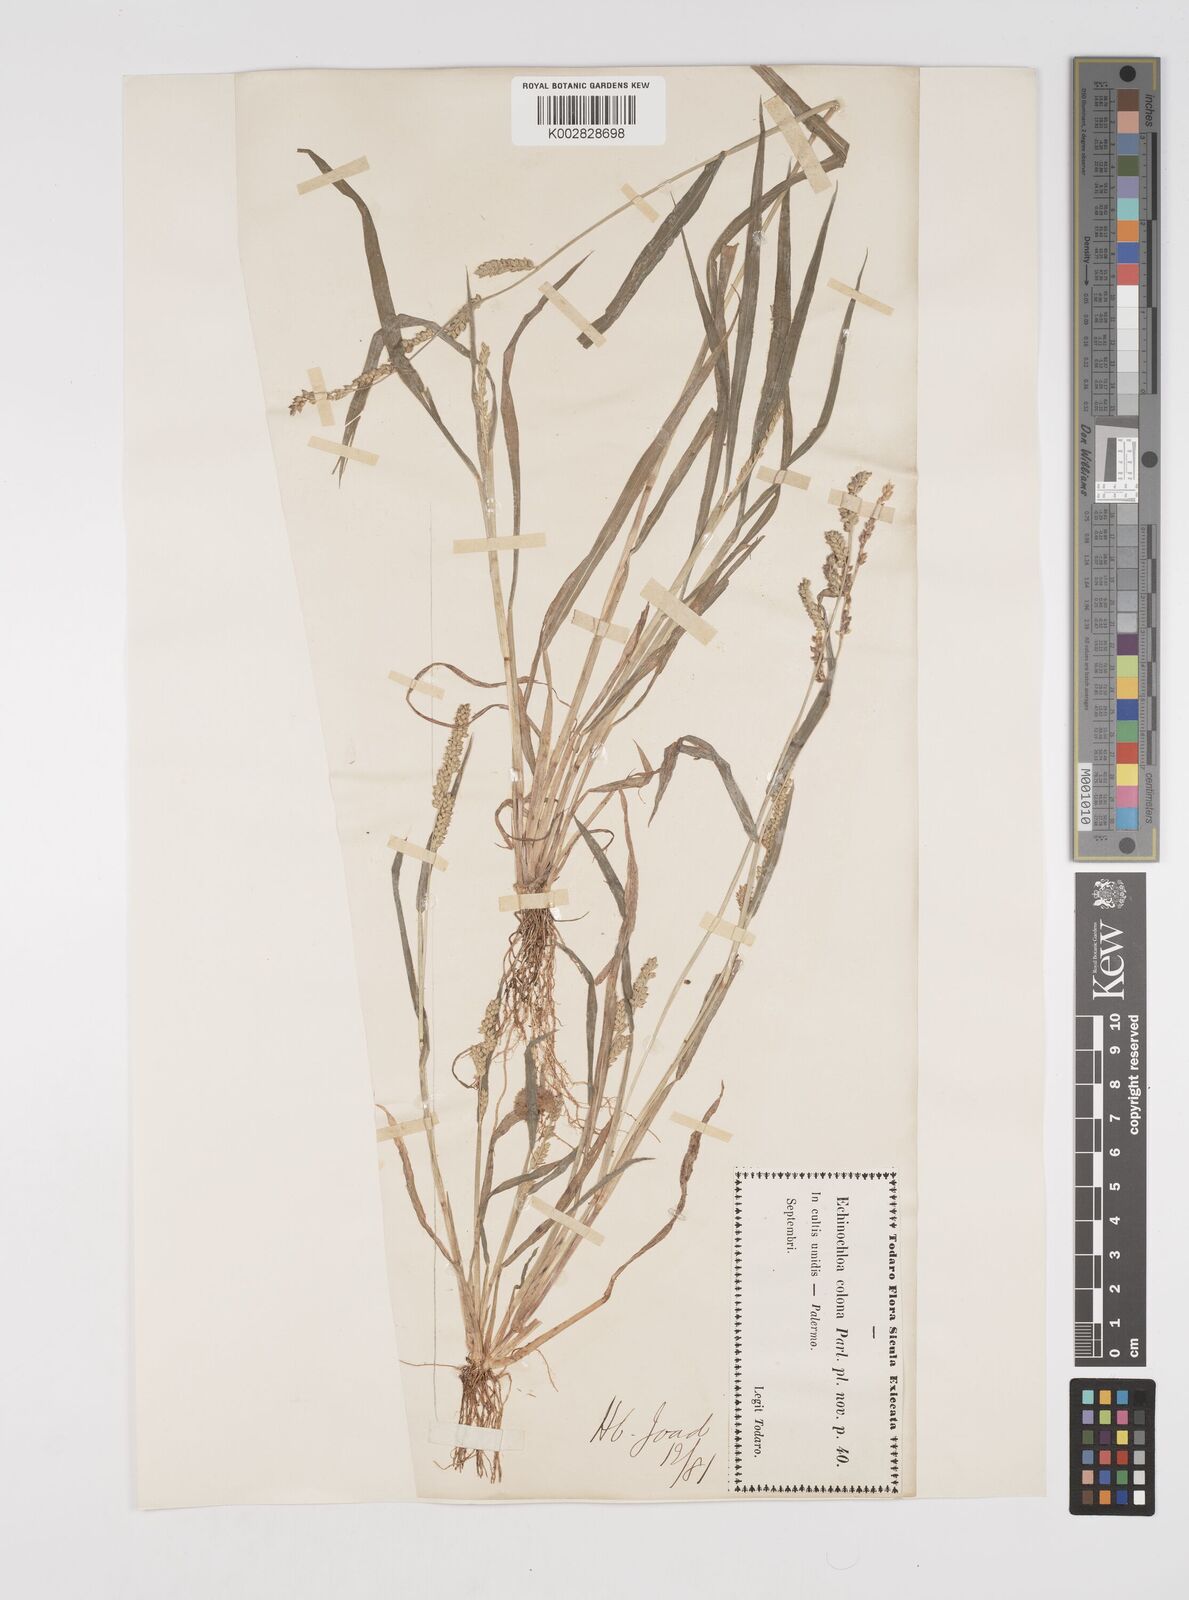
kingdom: Plantae
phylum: Tracheophyta
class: Liliopsida
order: Poales
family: Poaceae
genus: Echinochloa
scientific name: Echinochloa colonum
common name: Jungle rice
